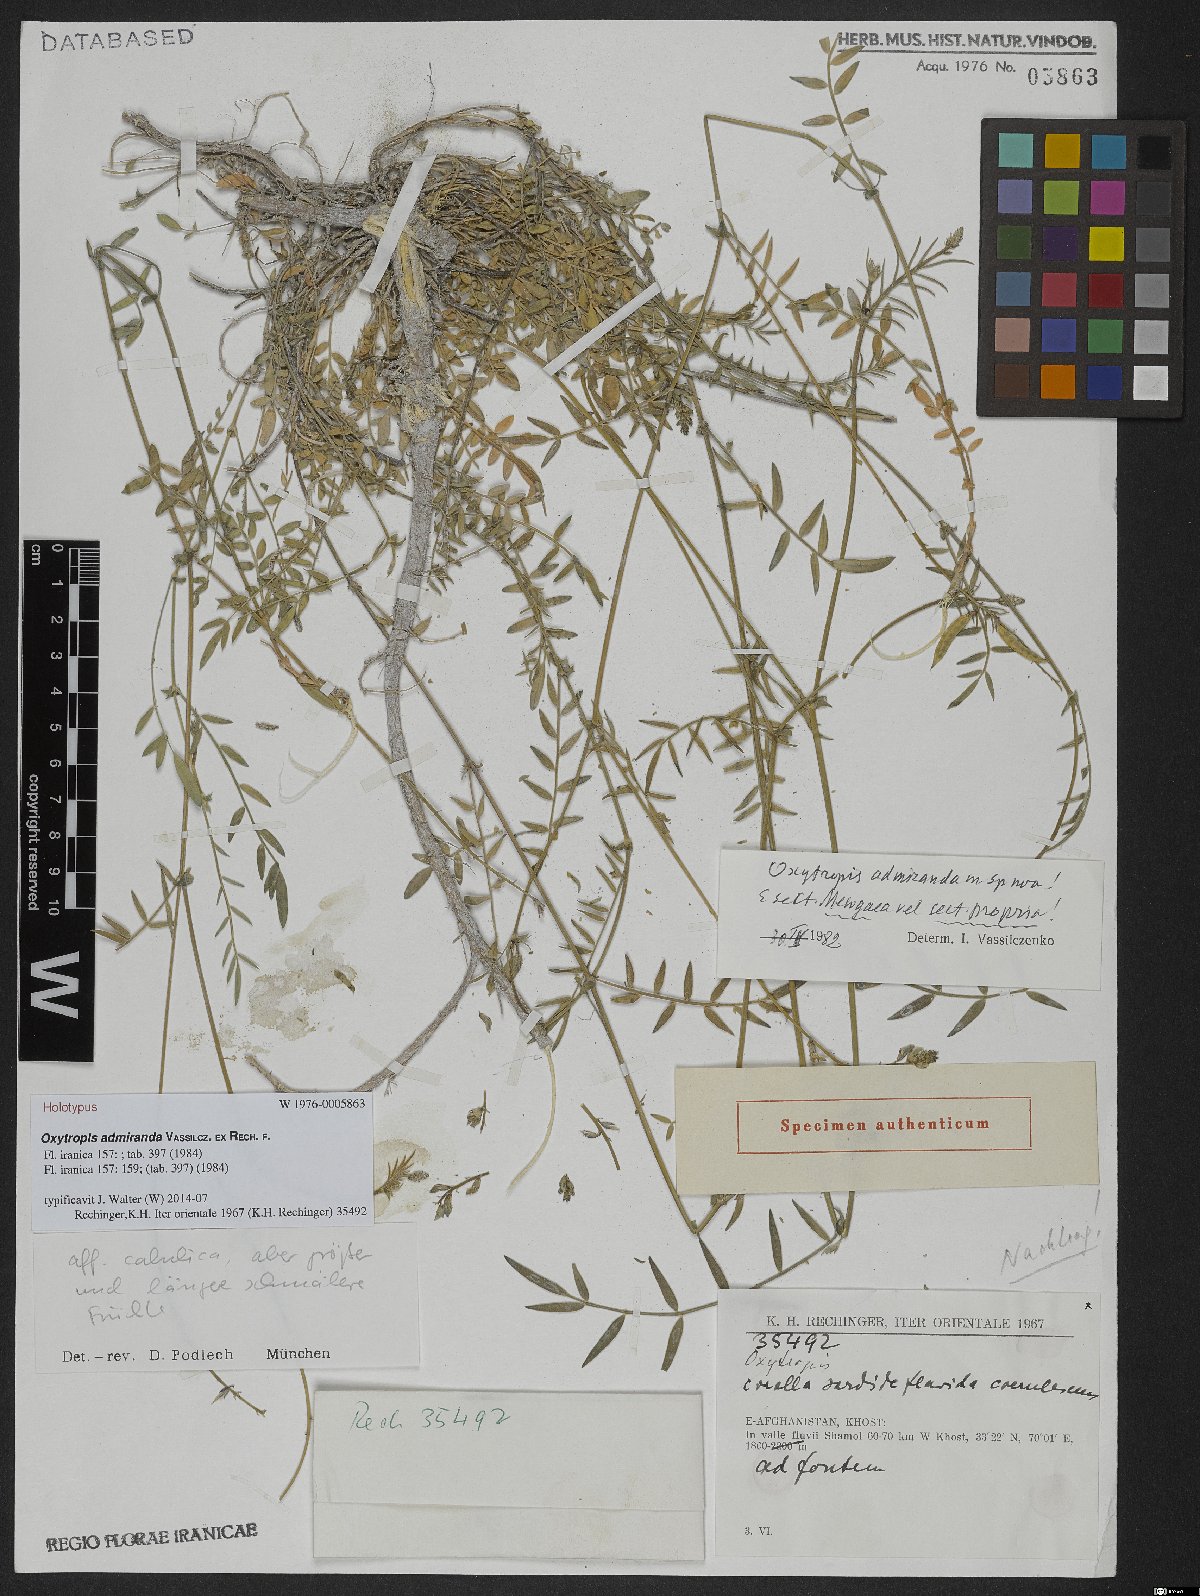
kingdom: Plantae
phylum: Tracheophyta
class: Magnoliopsida
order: Fabales
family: Fabaceae
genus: Oxytropis
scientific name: Oxytropis admiranda
